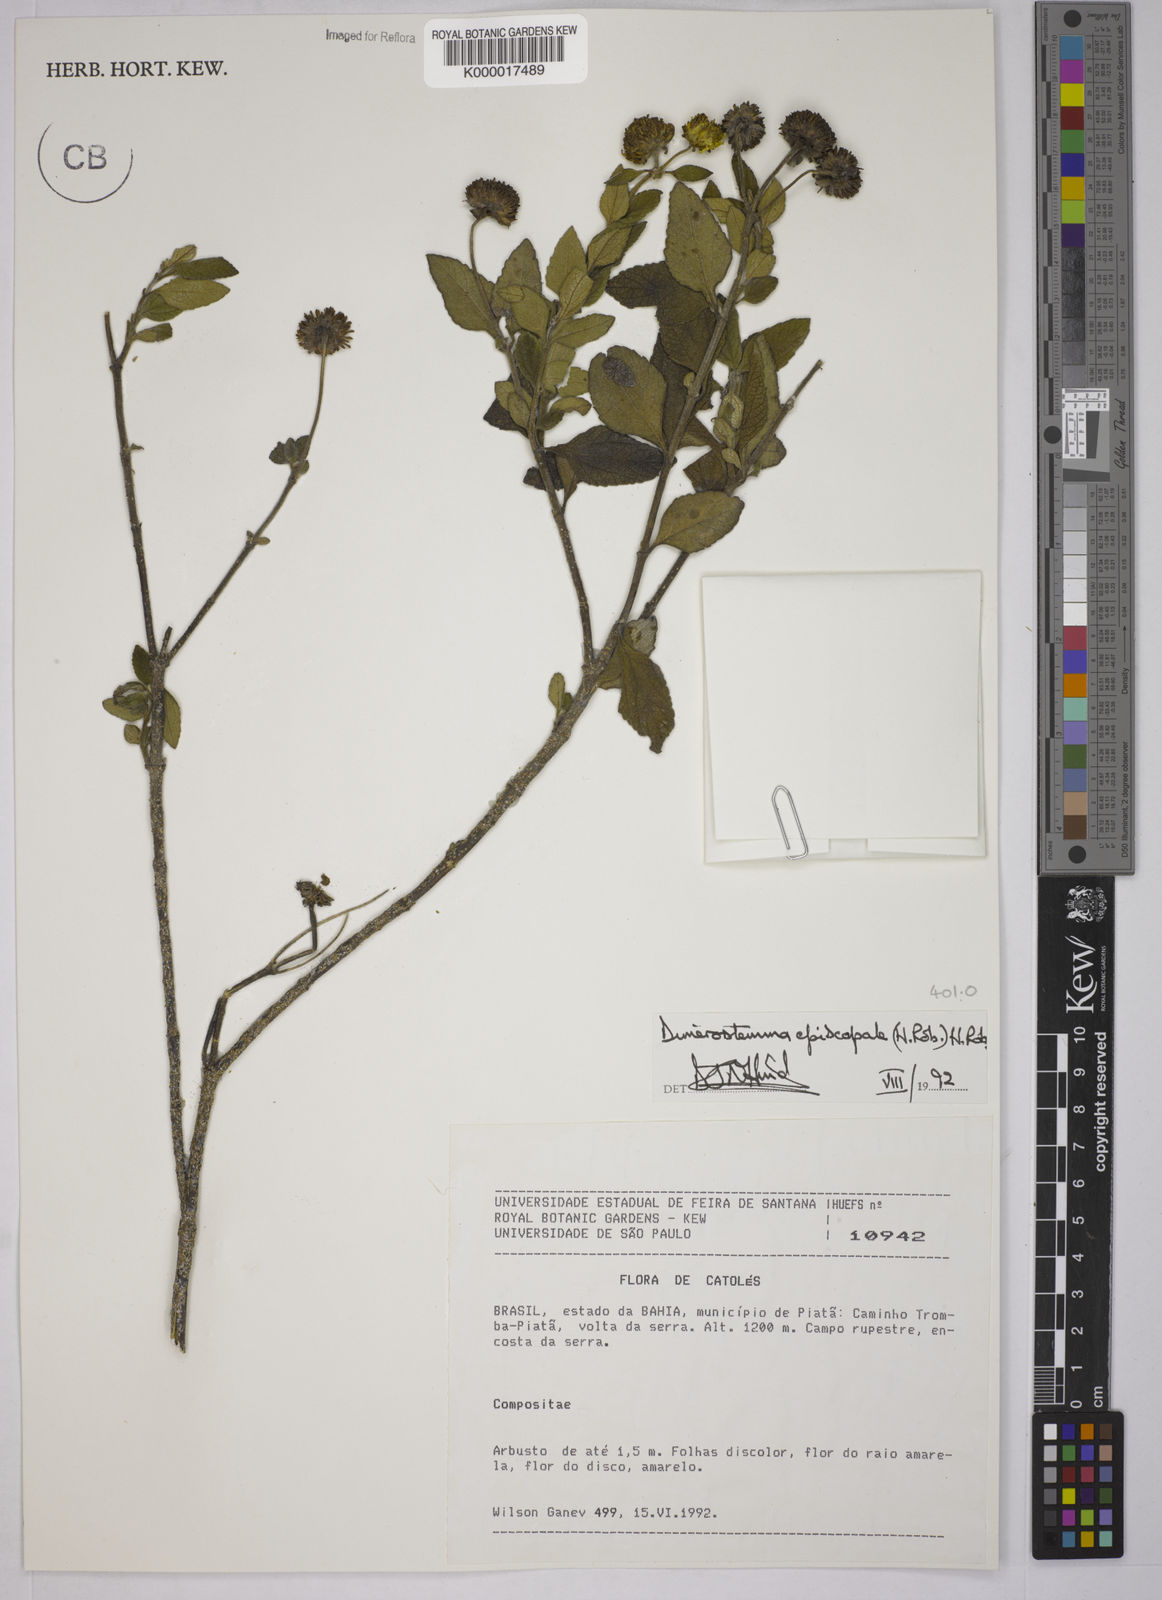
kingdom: Plantae
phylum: Tracheophyta
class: Magnoliopsida
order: Asterales
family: Asteraceae
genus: Dimerostemma
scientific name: Dimerostemma episcopale
